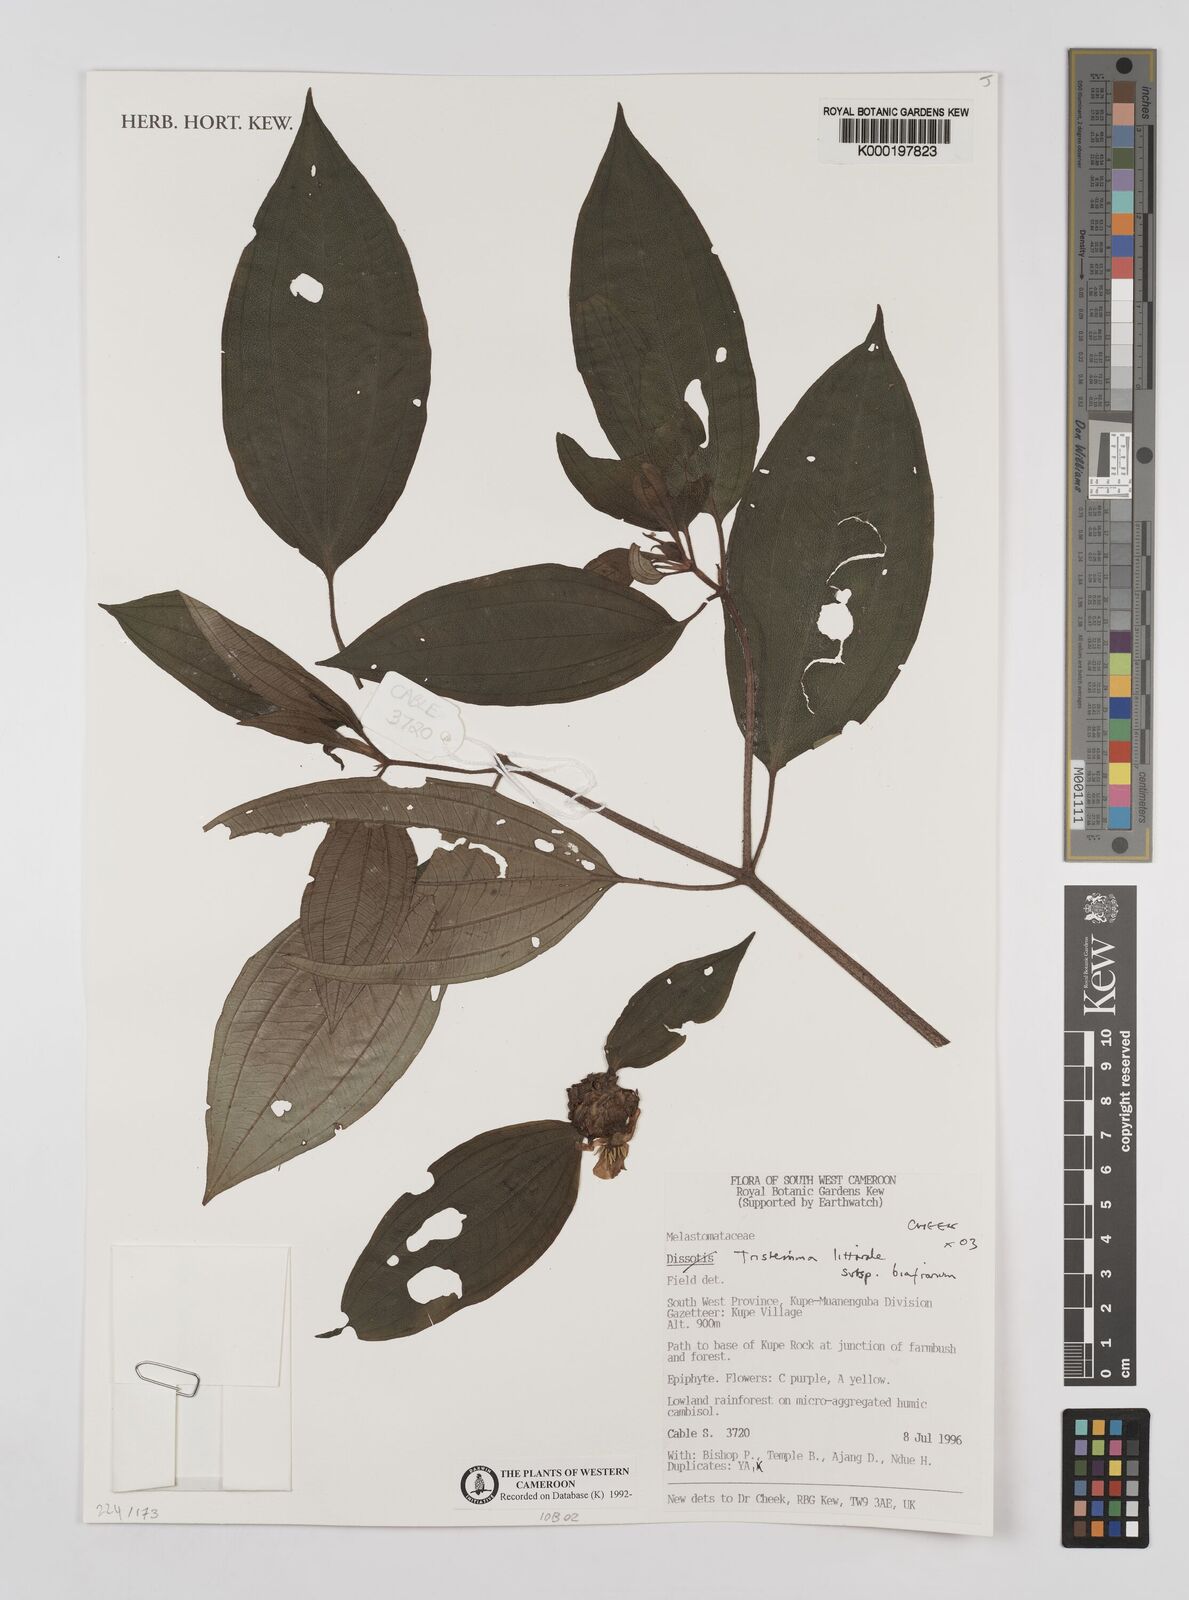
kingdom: Plantae
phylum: Tracheophyta
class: Magnoliopsida
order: Myrtales
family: Melastomataceae
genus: Tristemma
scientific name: Tristemma littorale
